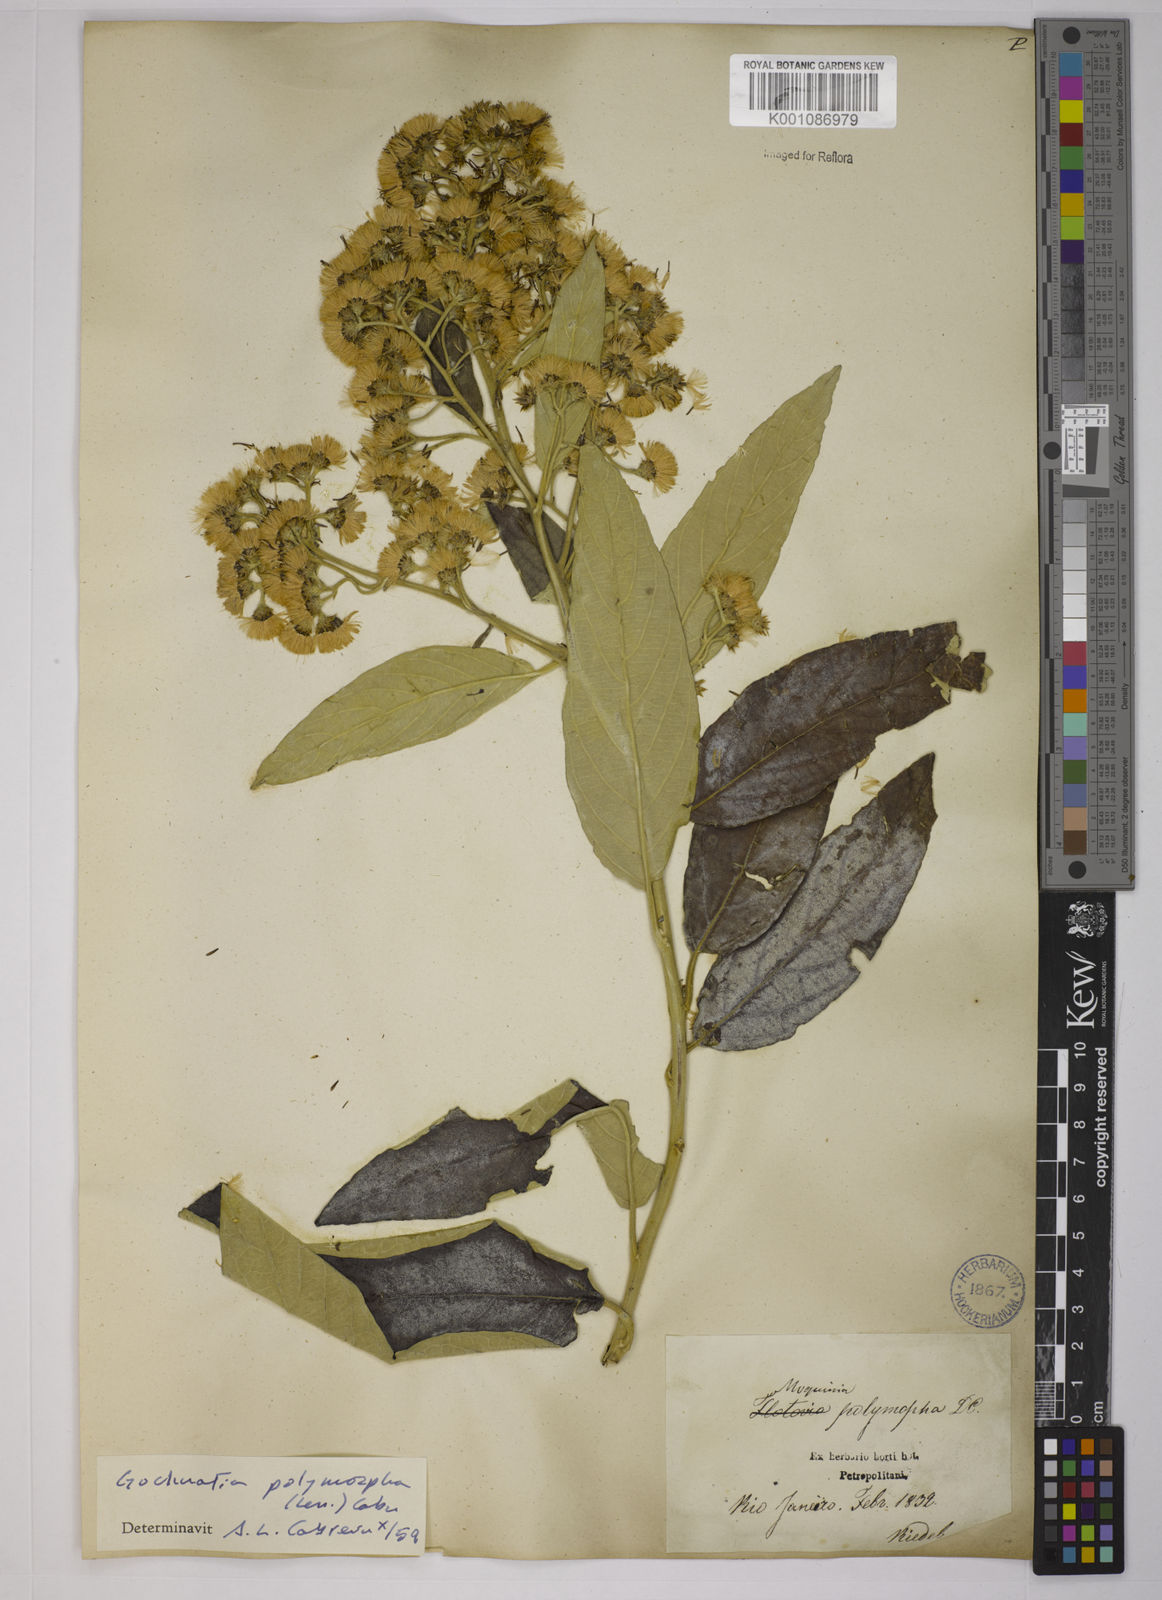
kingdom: Plantae
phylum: Tracheophyta
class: Magnoliopsida
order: Asterales
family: Asteraceae
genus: Moquiniastrum
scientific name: Moquiniastrum polymorphum
